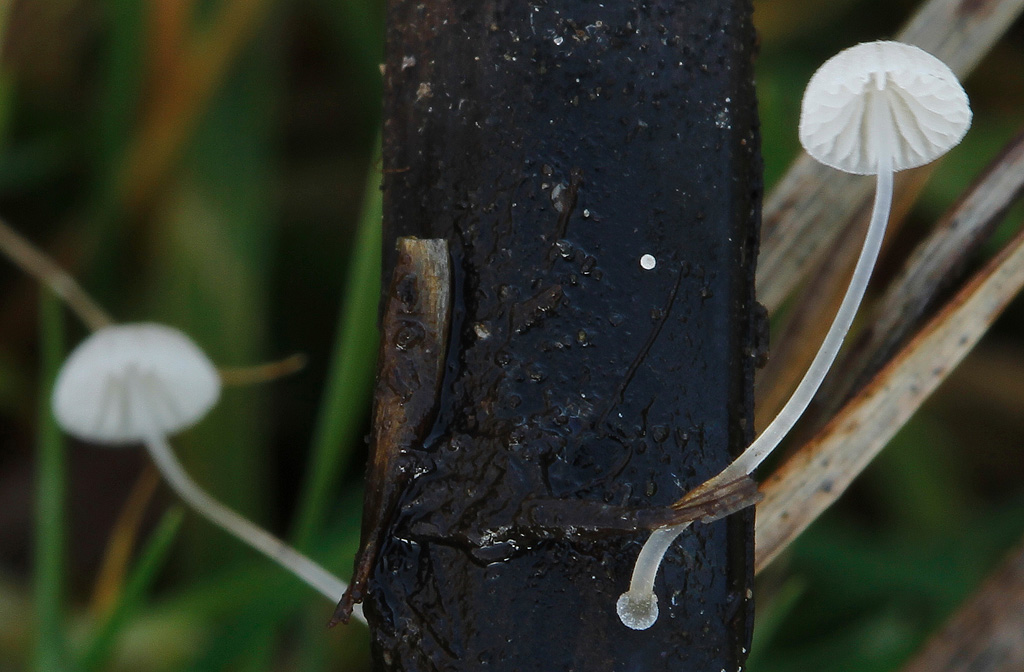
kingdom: Fungi
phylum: Basidiomycota
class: Agaricomycetes
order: Agaricales
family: Mycenaceae
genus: Mycena
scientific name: Mycena tenerrima
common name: pudret huesvamp
